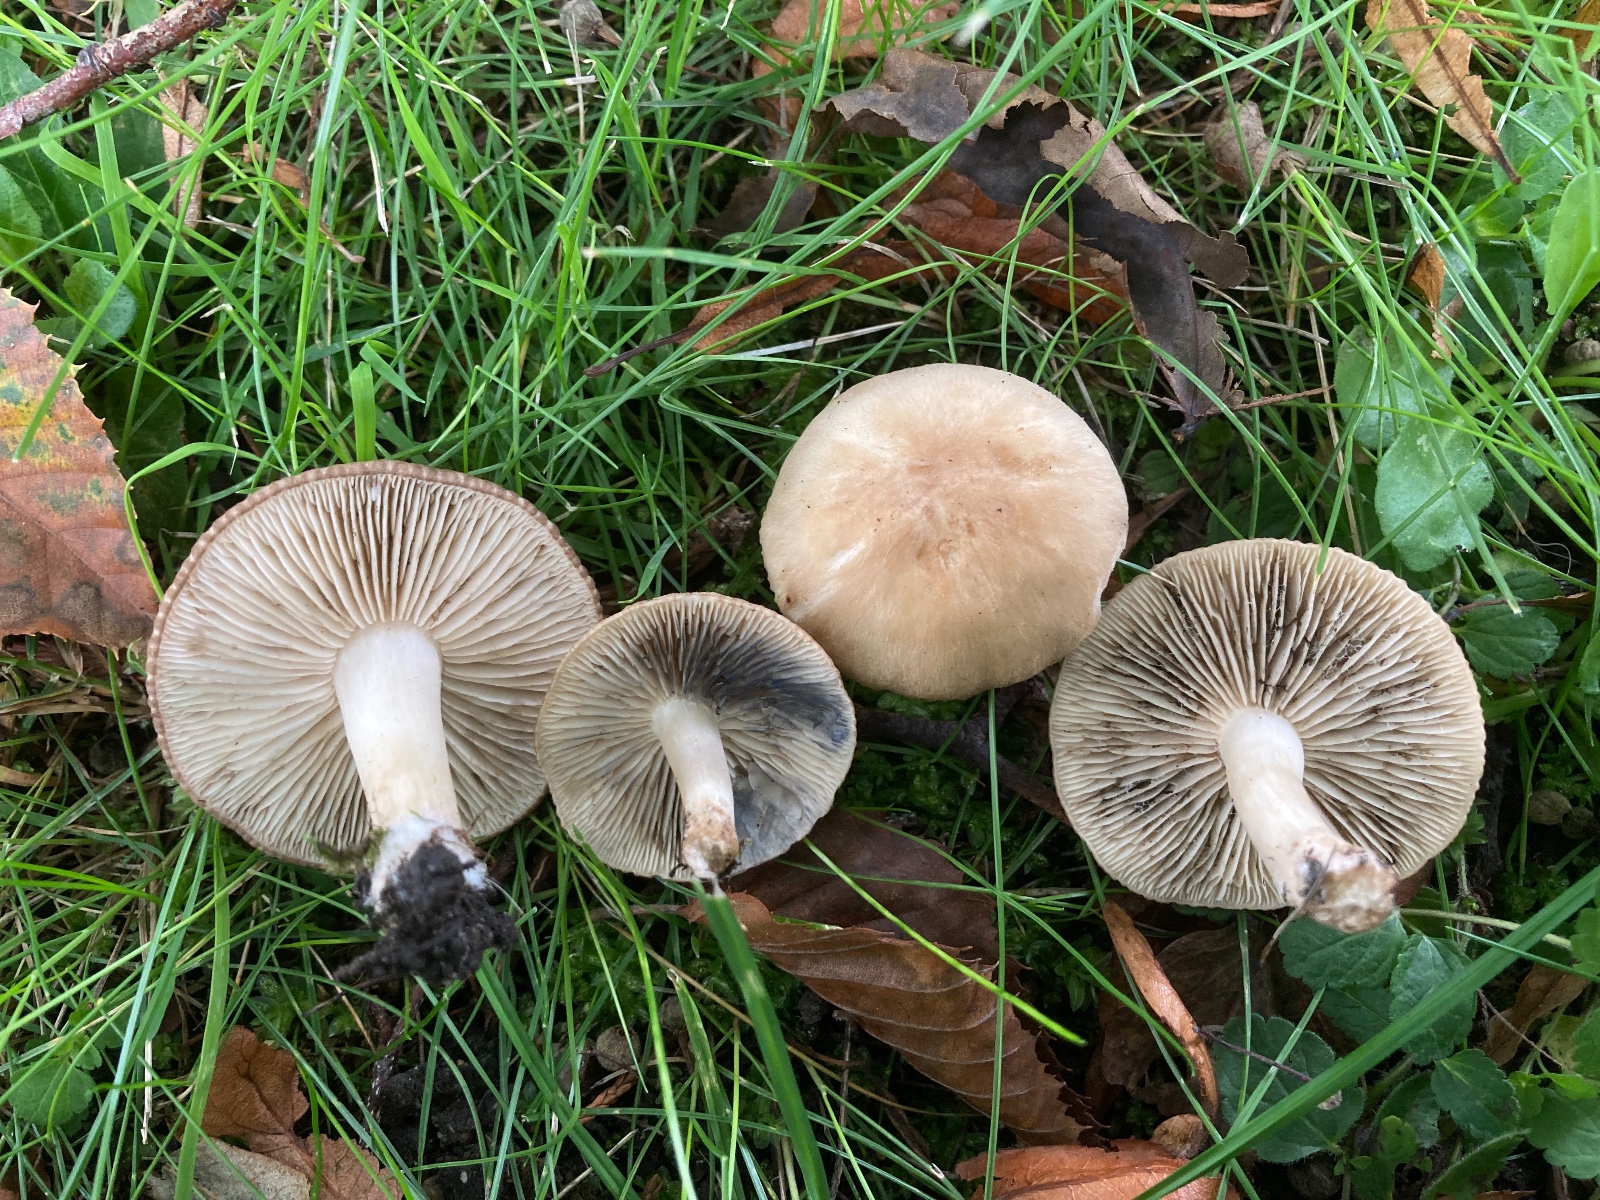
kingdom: Fungi
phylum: Basidiomycota
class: Agaricomycetes
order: Agaricales
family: Lyophyllaceae
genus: Lyophyllum
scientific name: Lyophyllum paelochroum
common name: blånende gråblad
